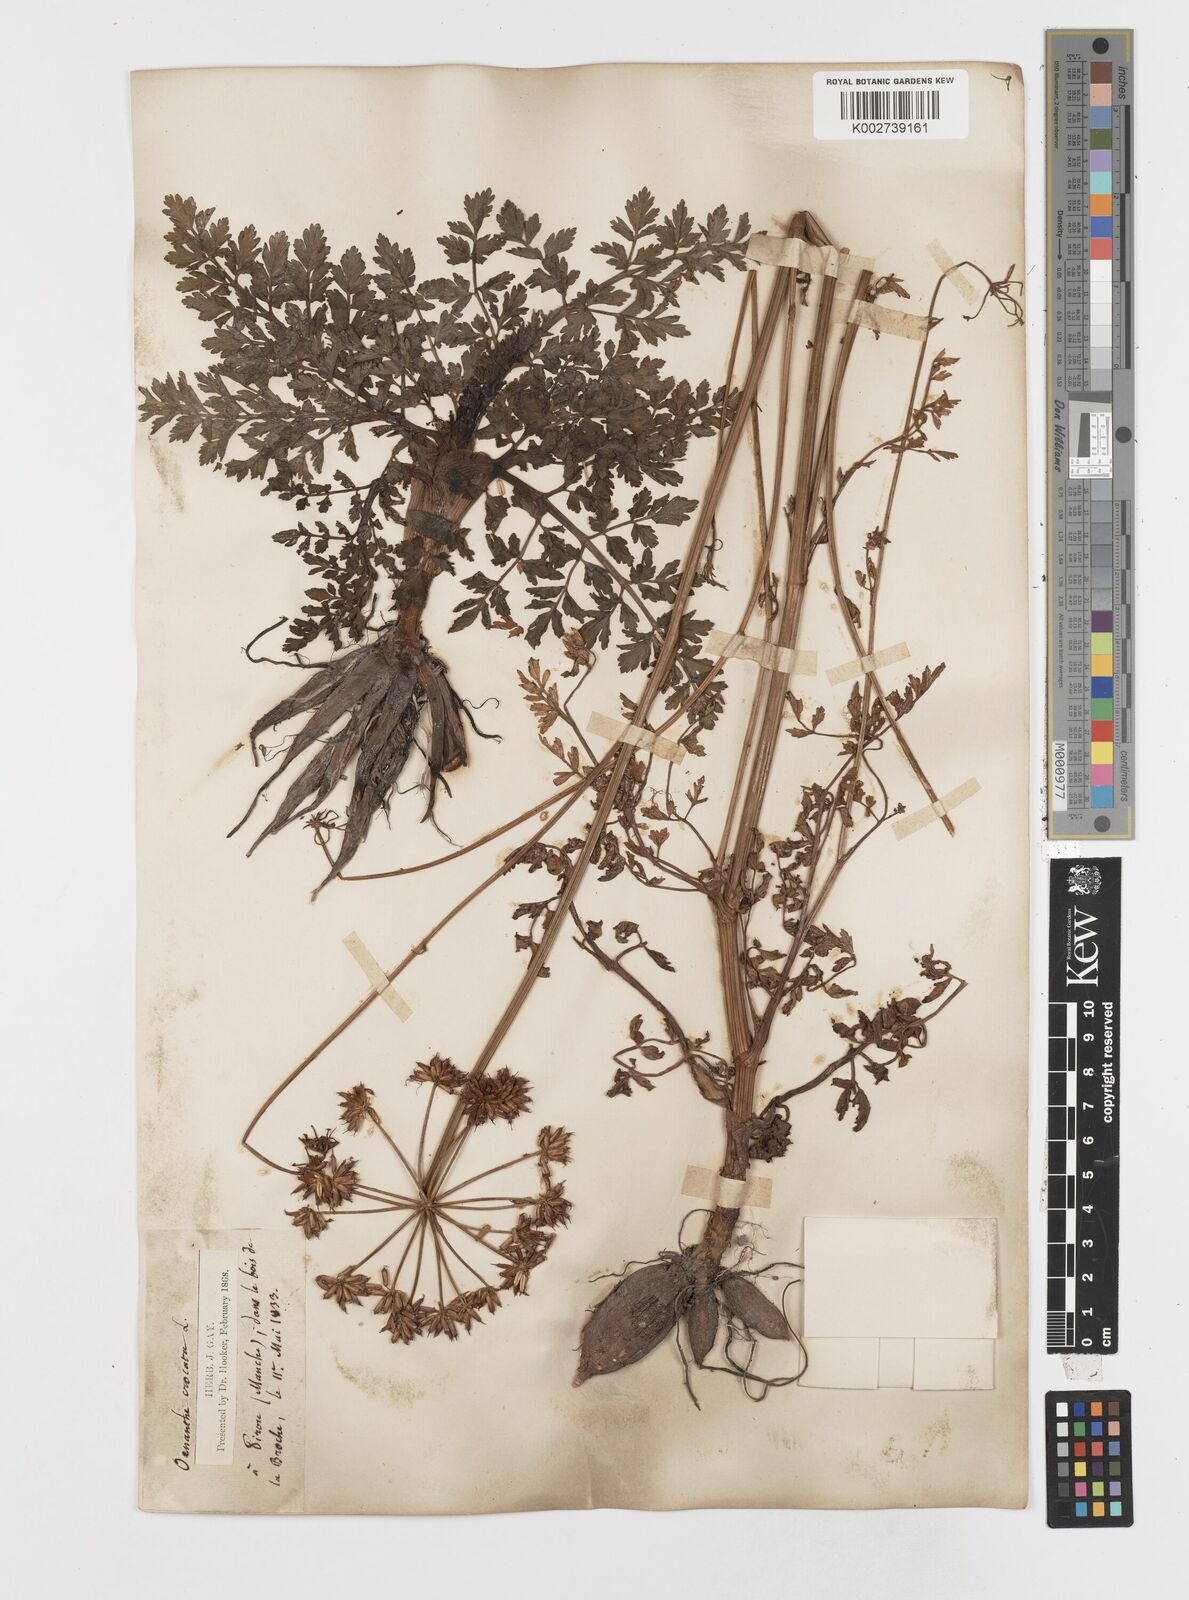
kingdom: Plantae
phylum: Tracheophyta
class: Magnoliopsida
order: Apiales
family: Apiaceae
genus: Oenanthe
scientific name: Oenanthe crocata
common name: Hemlock water-dropwort
